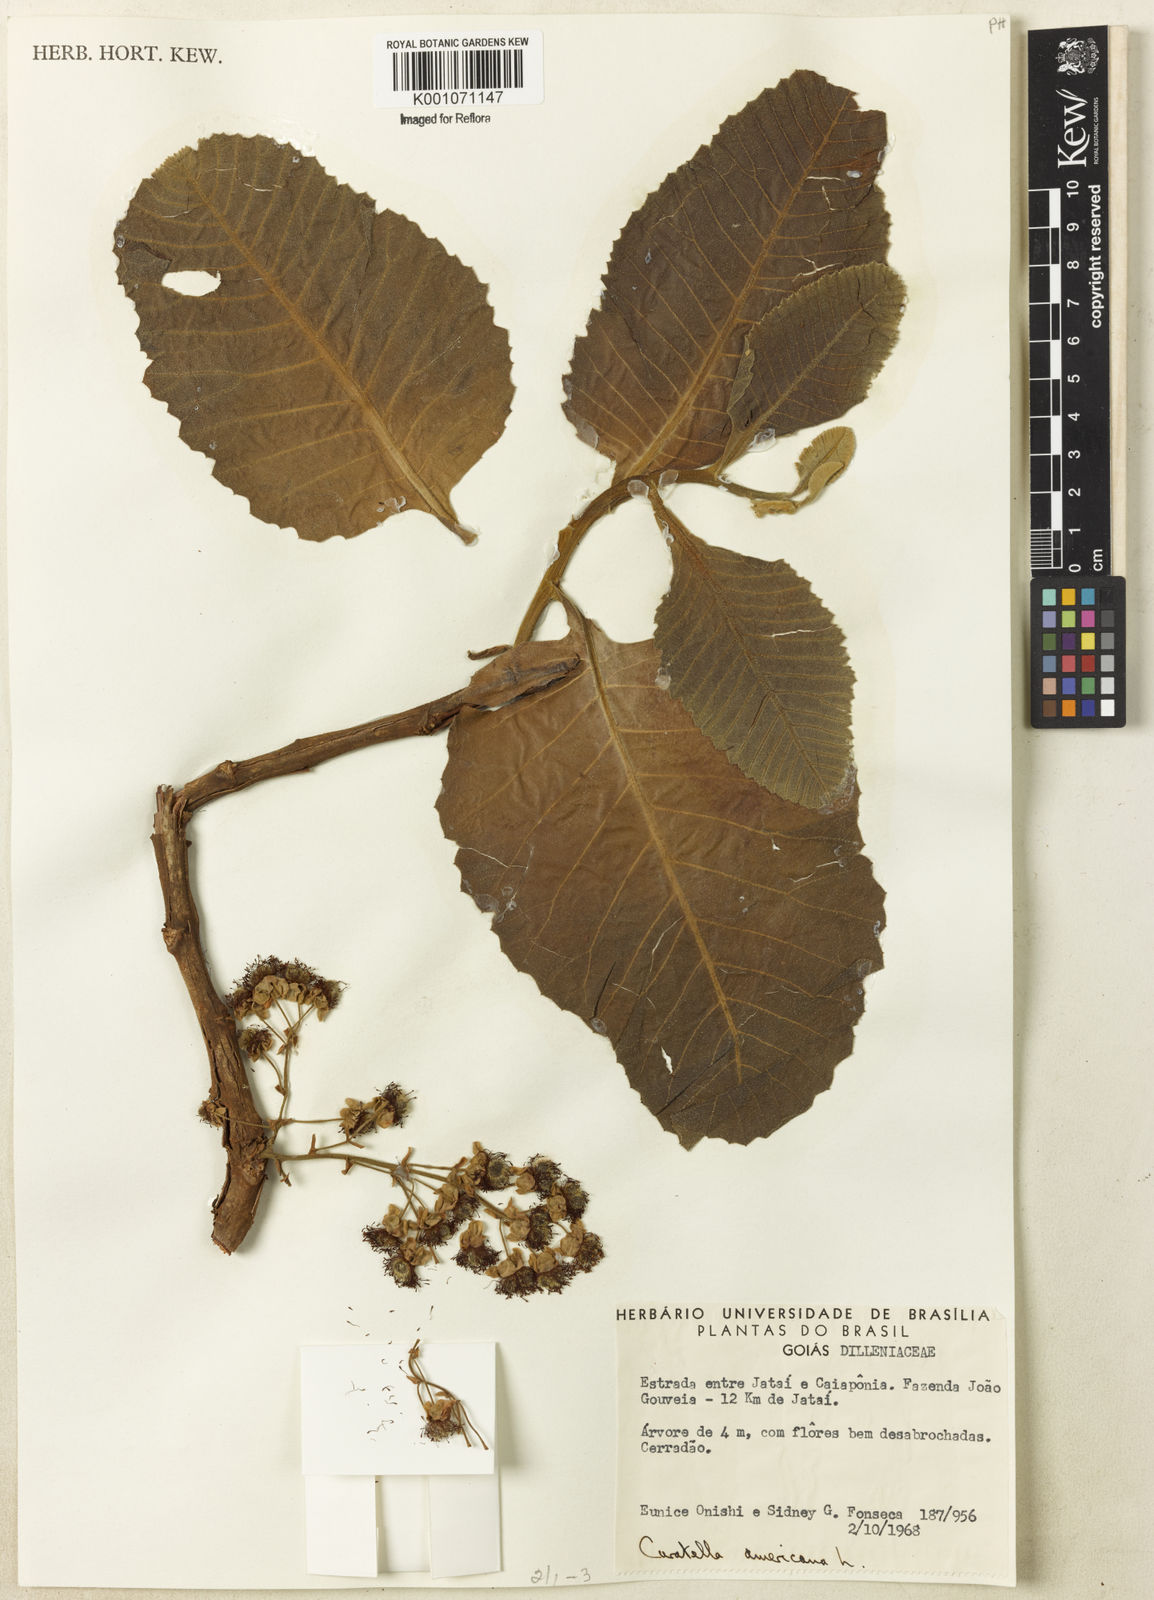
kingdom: Plantae
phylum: Tracheophyta
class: Magnoliopsida
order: Dilleniales
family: Dilleniaceae
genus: Curatella
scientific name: Curatella americana
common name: Sandpaper tree
